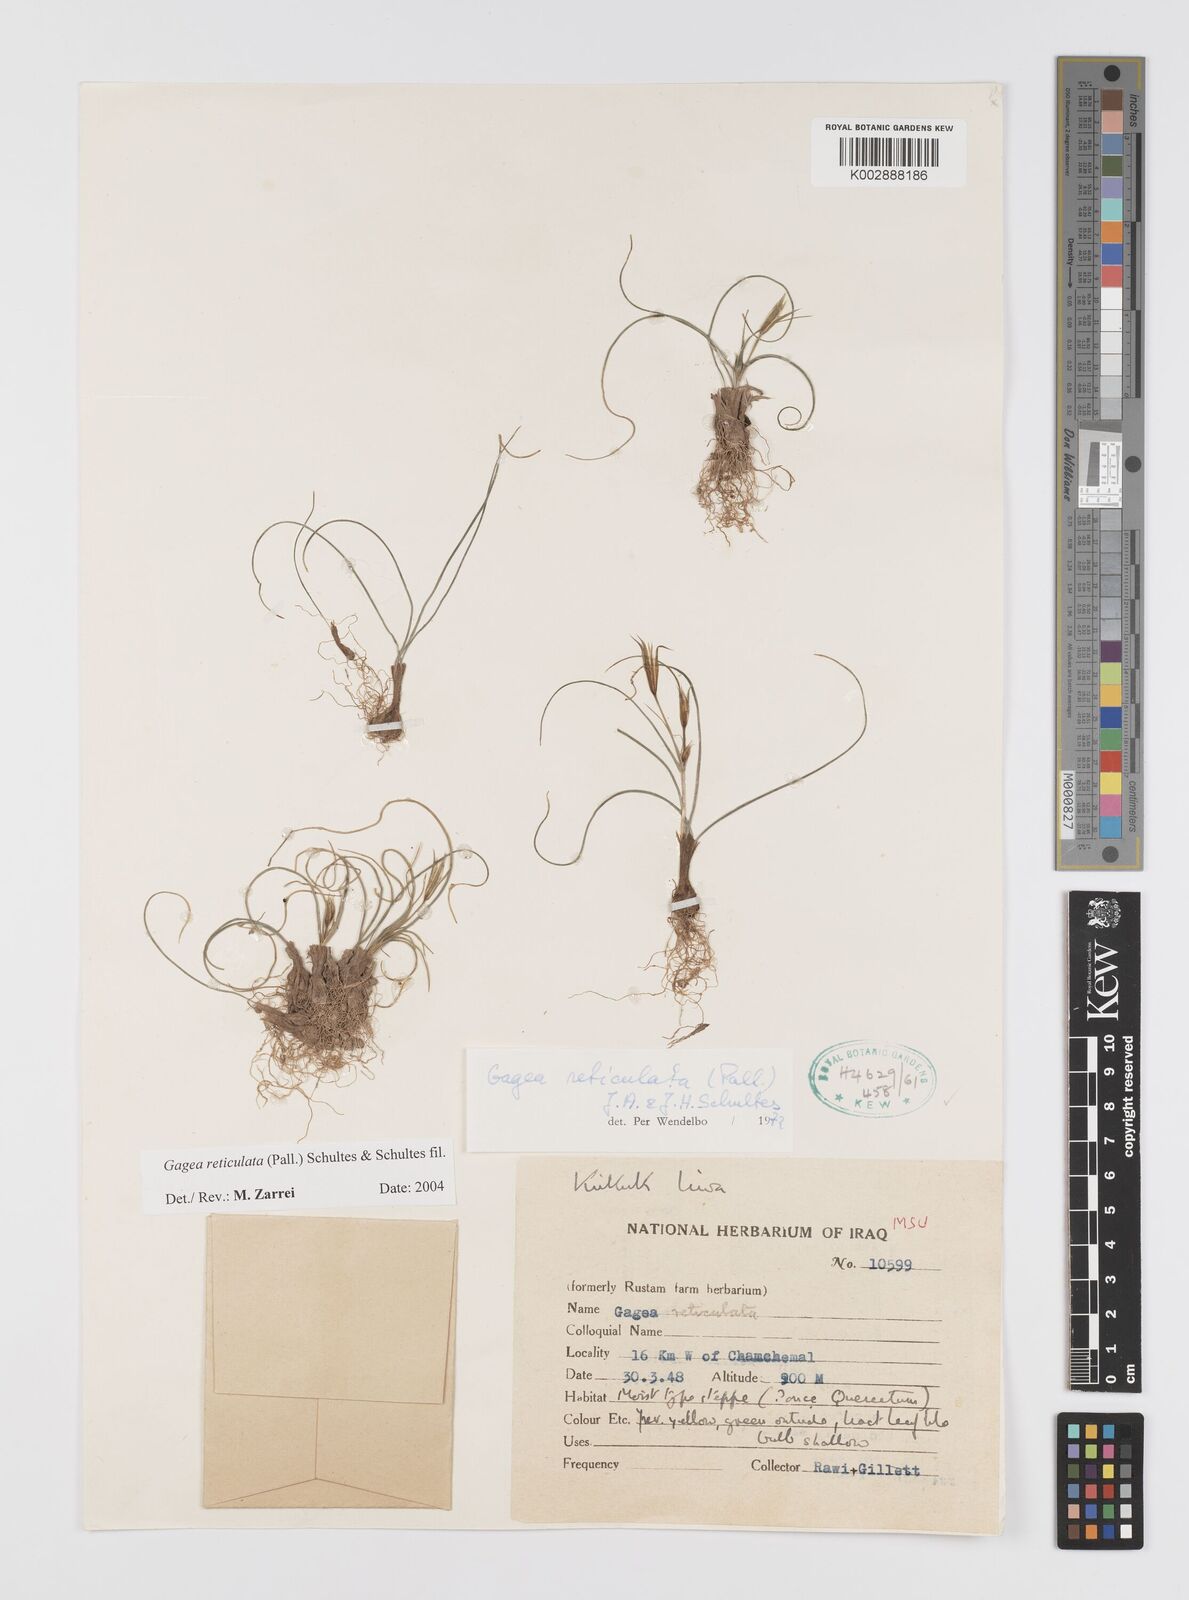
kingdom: Plantae
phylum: Tracheophyta
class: Liliopsida
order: Liliales
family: Liliaceae
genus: Gagea
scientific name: Gagea reticulata
